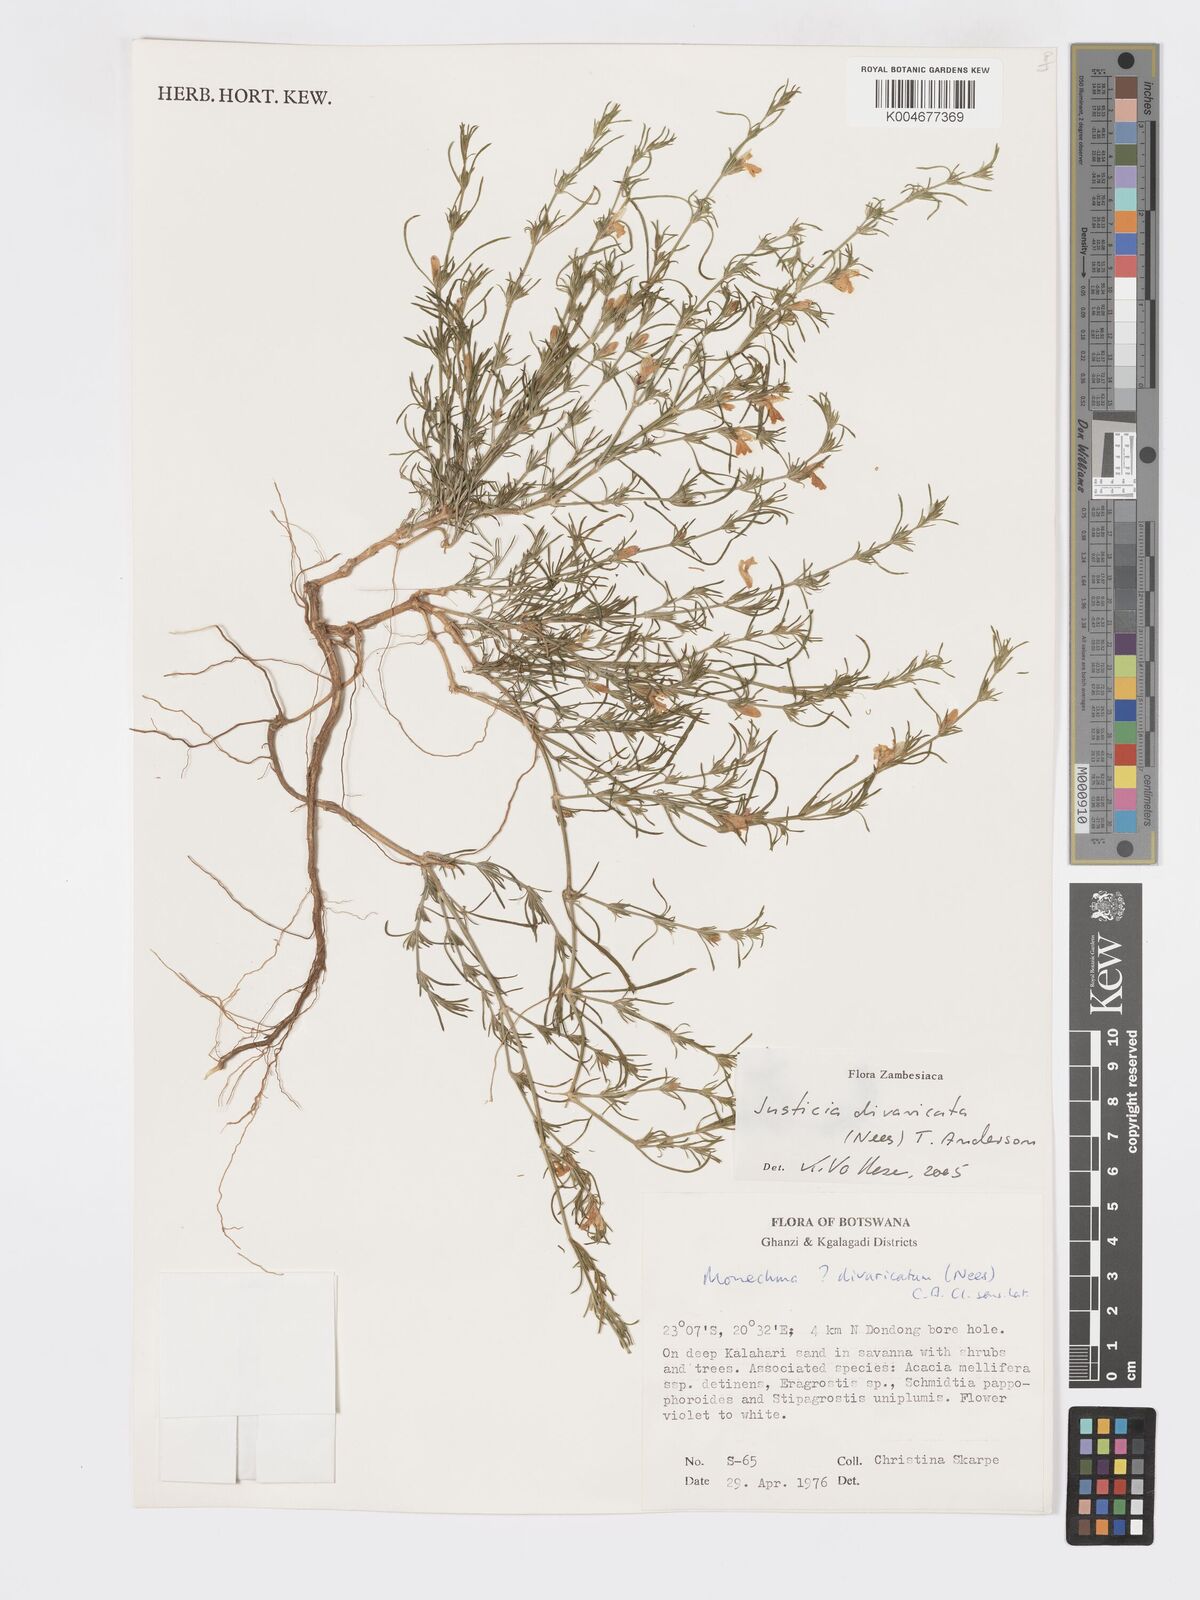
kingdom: Plantae
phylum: Tracheophyta
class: Magnoliopsida
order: Lamiales
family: Acanthaceae
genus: Pogonospermum
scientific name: Pogonospermum
